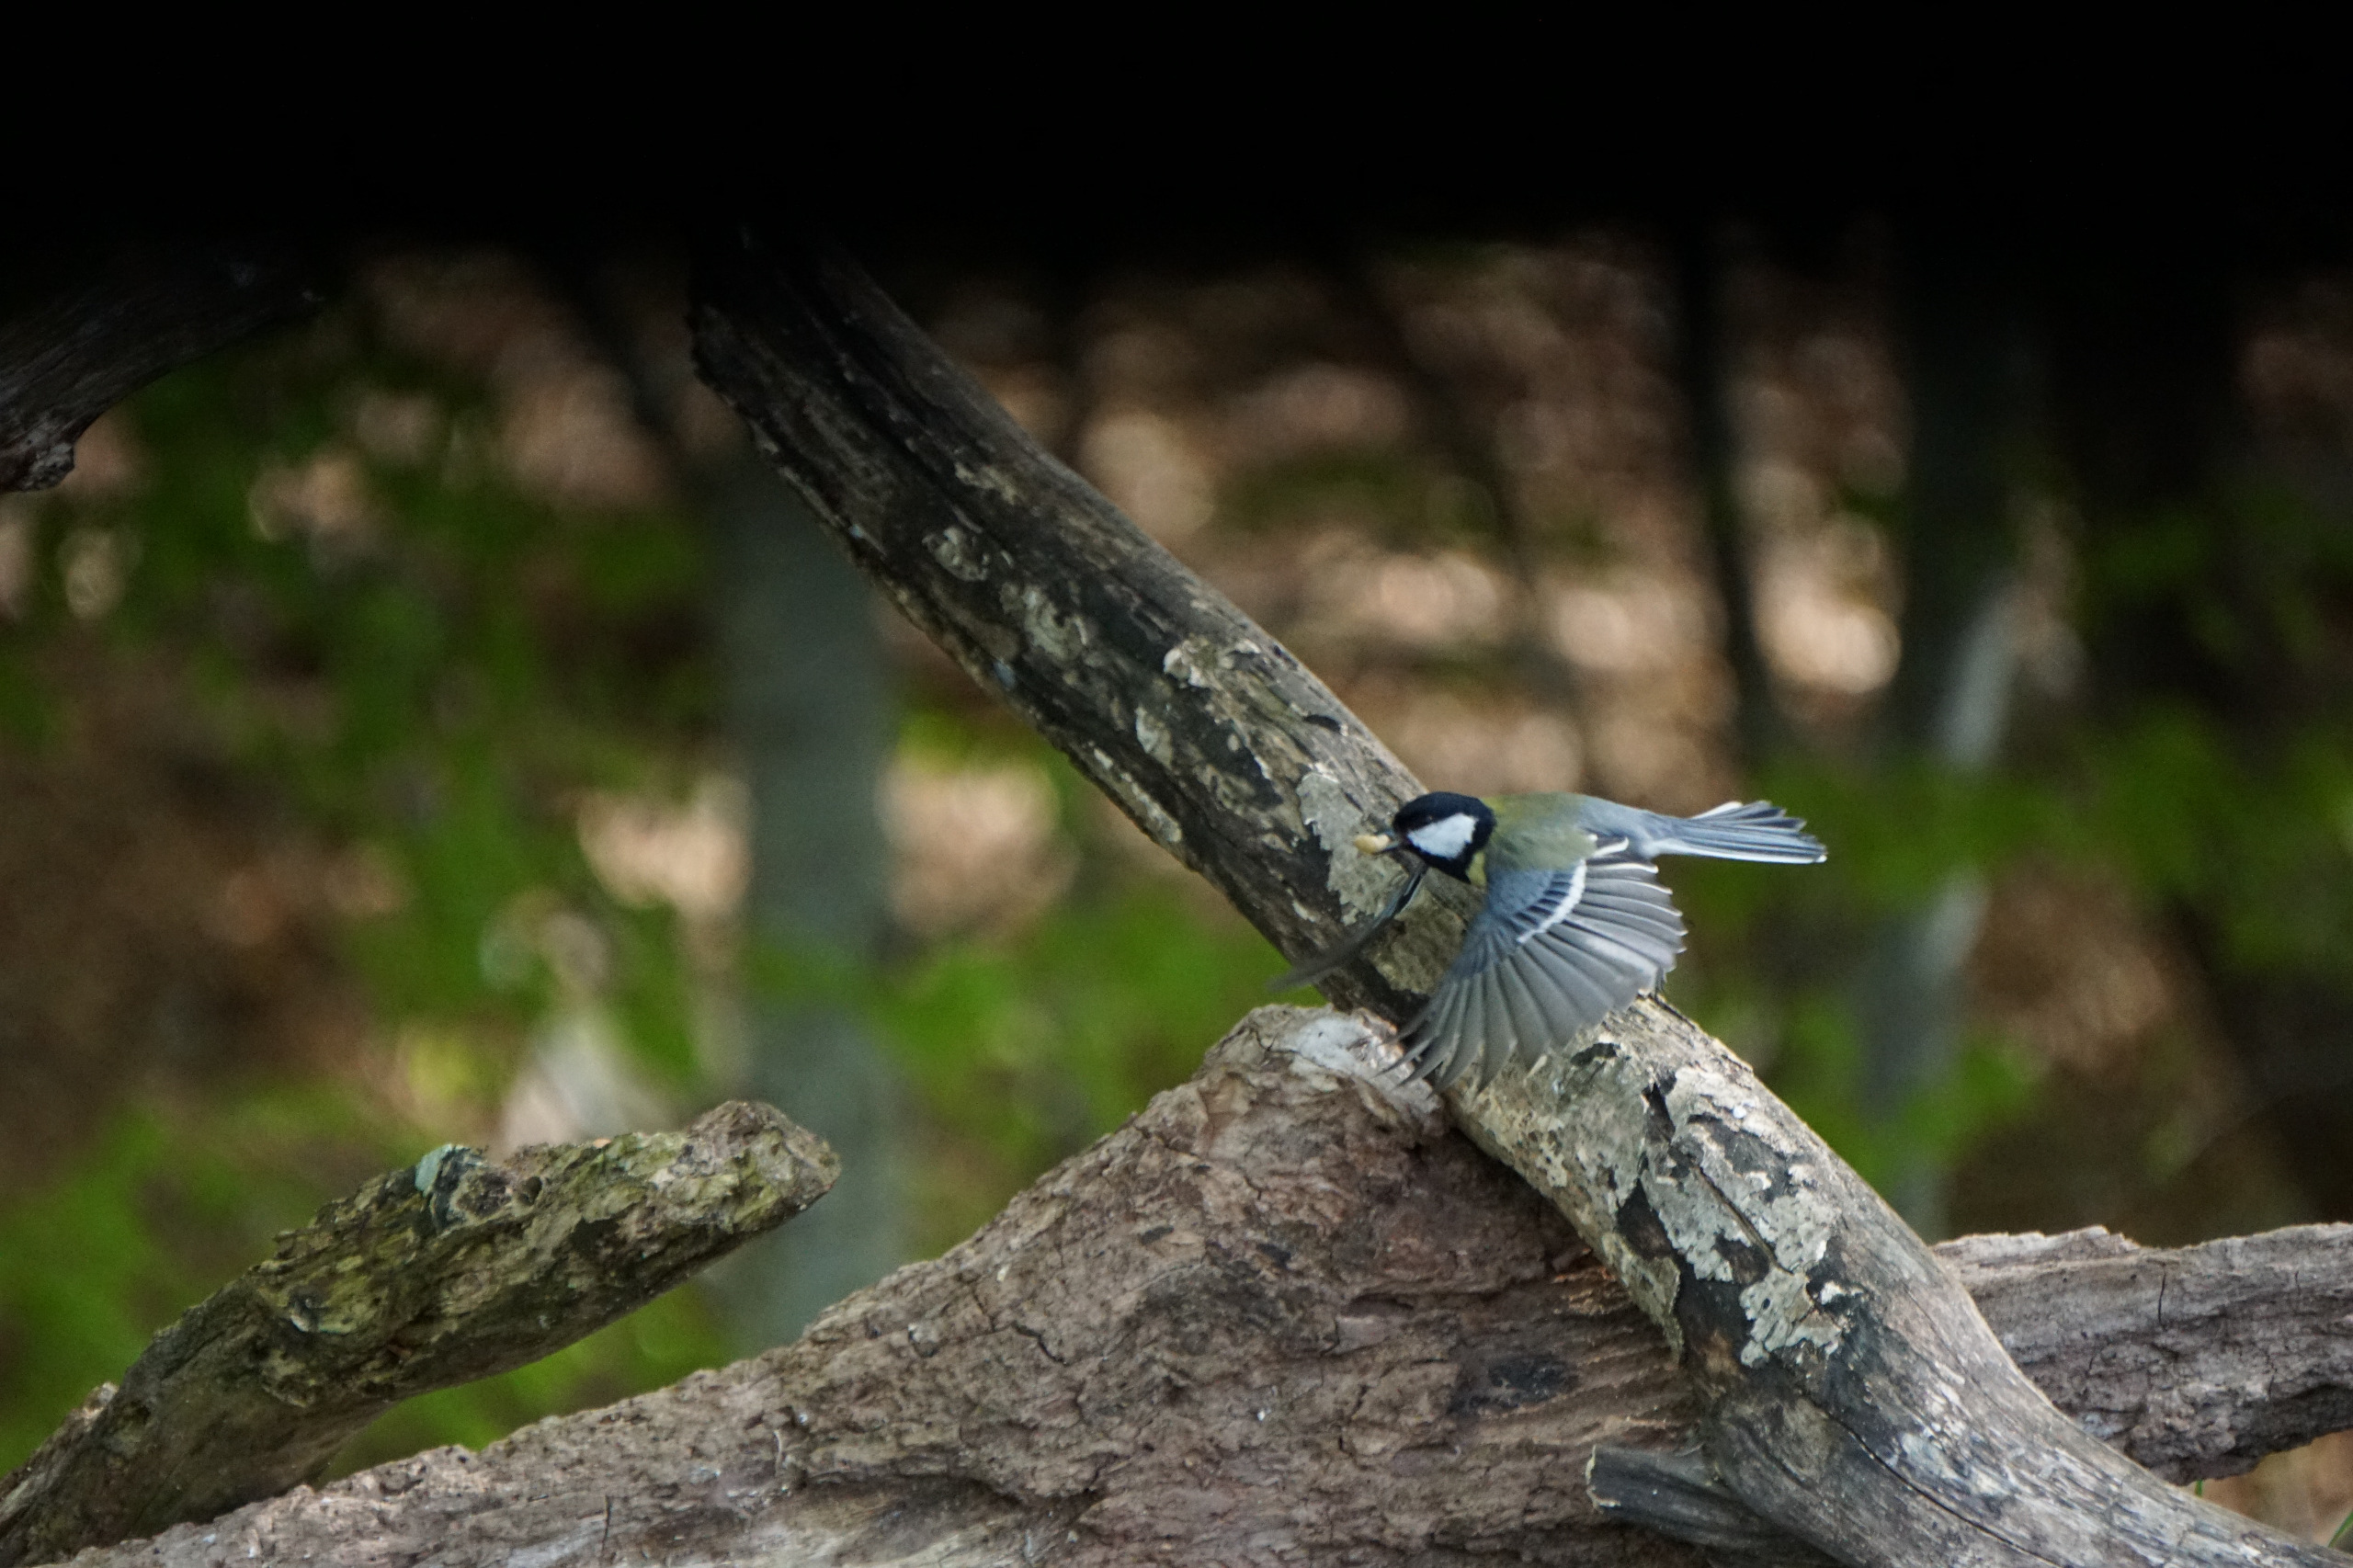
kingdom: Animalia
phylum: Chordata
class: Aves
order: Passeriformes
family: Paridae
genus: Parus
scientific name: Parus major
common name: Musvit
